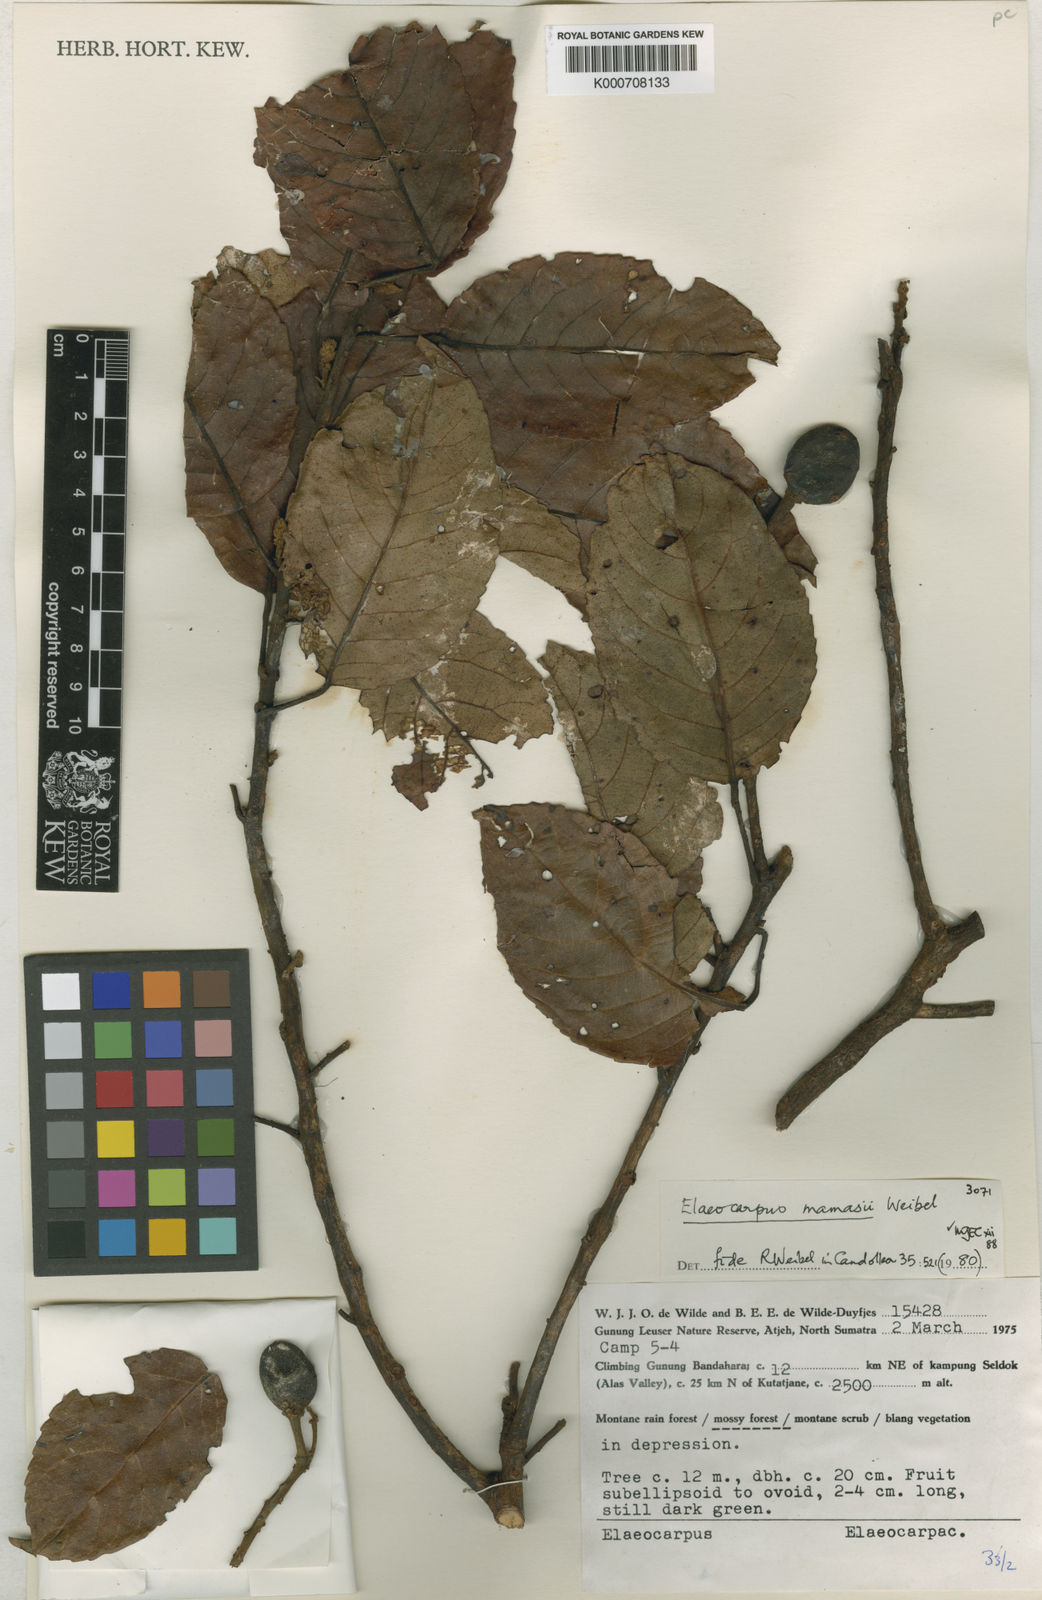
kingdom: Plantae
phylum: Tracheophyta
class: Magnoliopsida
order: Oxalidales
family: Elaeocarpaceae
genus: Elaeocarpus
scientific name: Elaeocarpus mamasii
